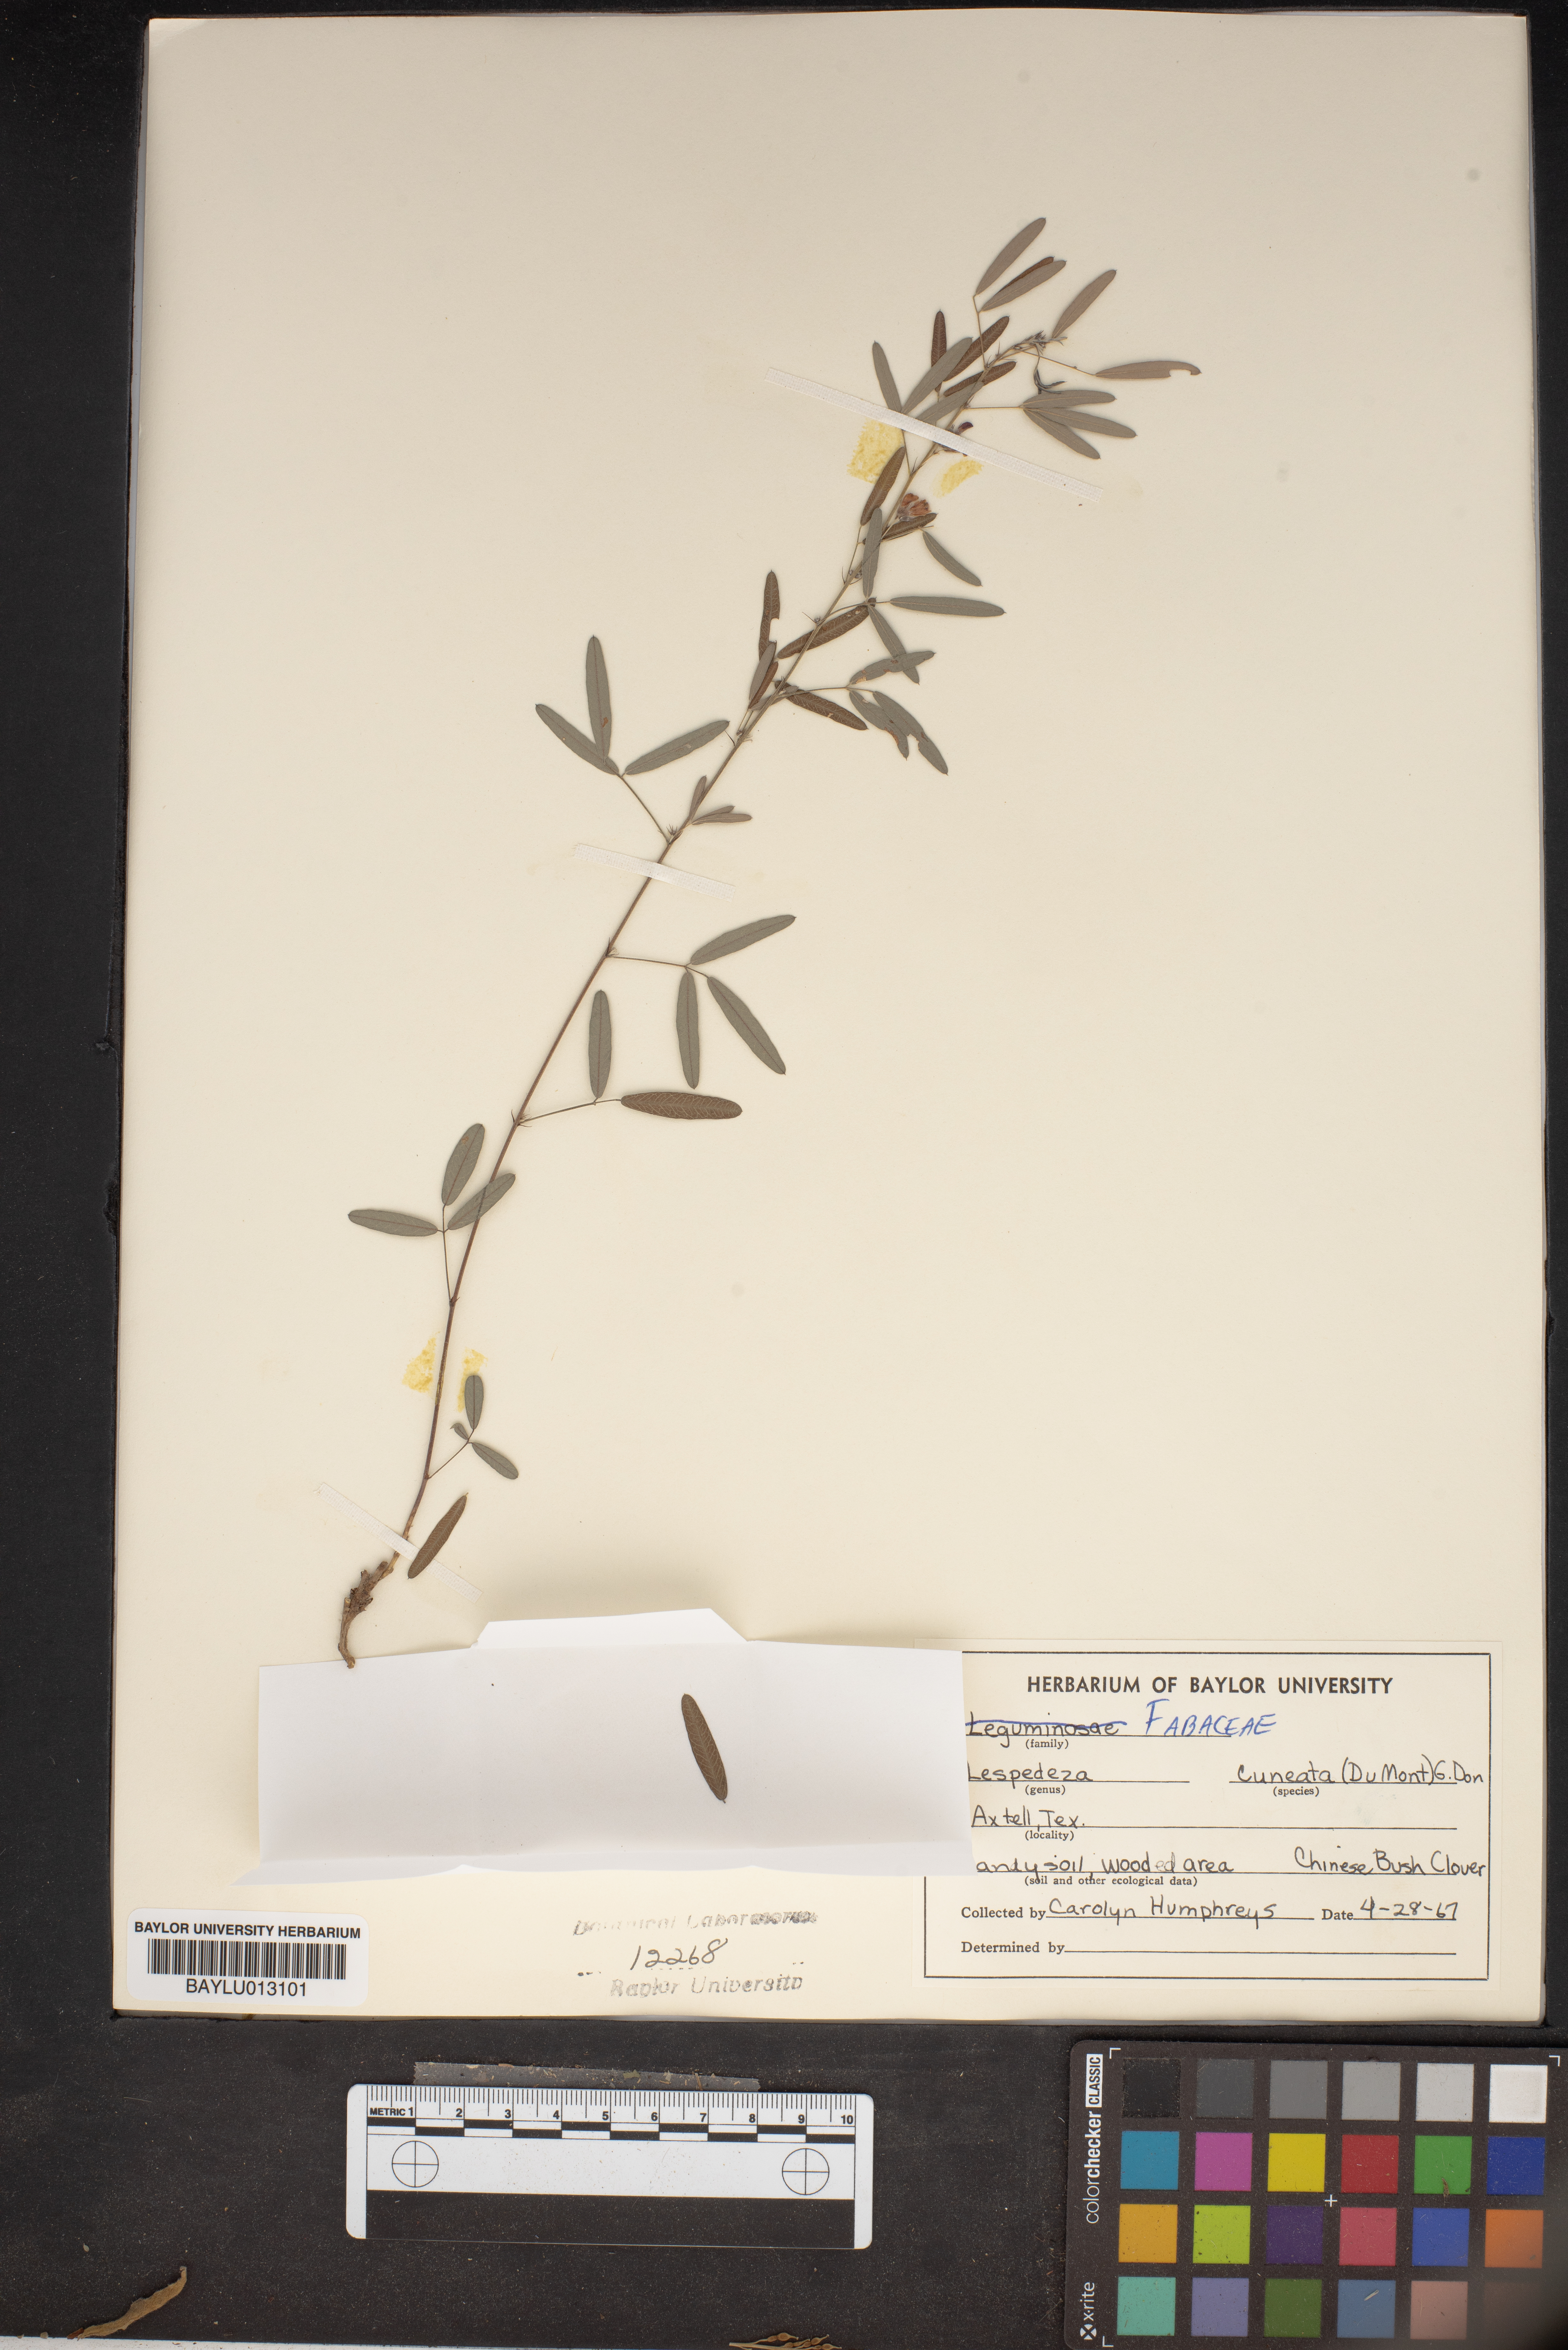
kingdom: Plantae
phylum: Tracheophyta
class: Magnoliopsida
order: Fabales
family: Fabaceae
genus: Lespedeza
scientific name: Lespedeza cuneata
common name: Chinese bush-clover
